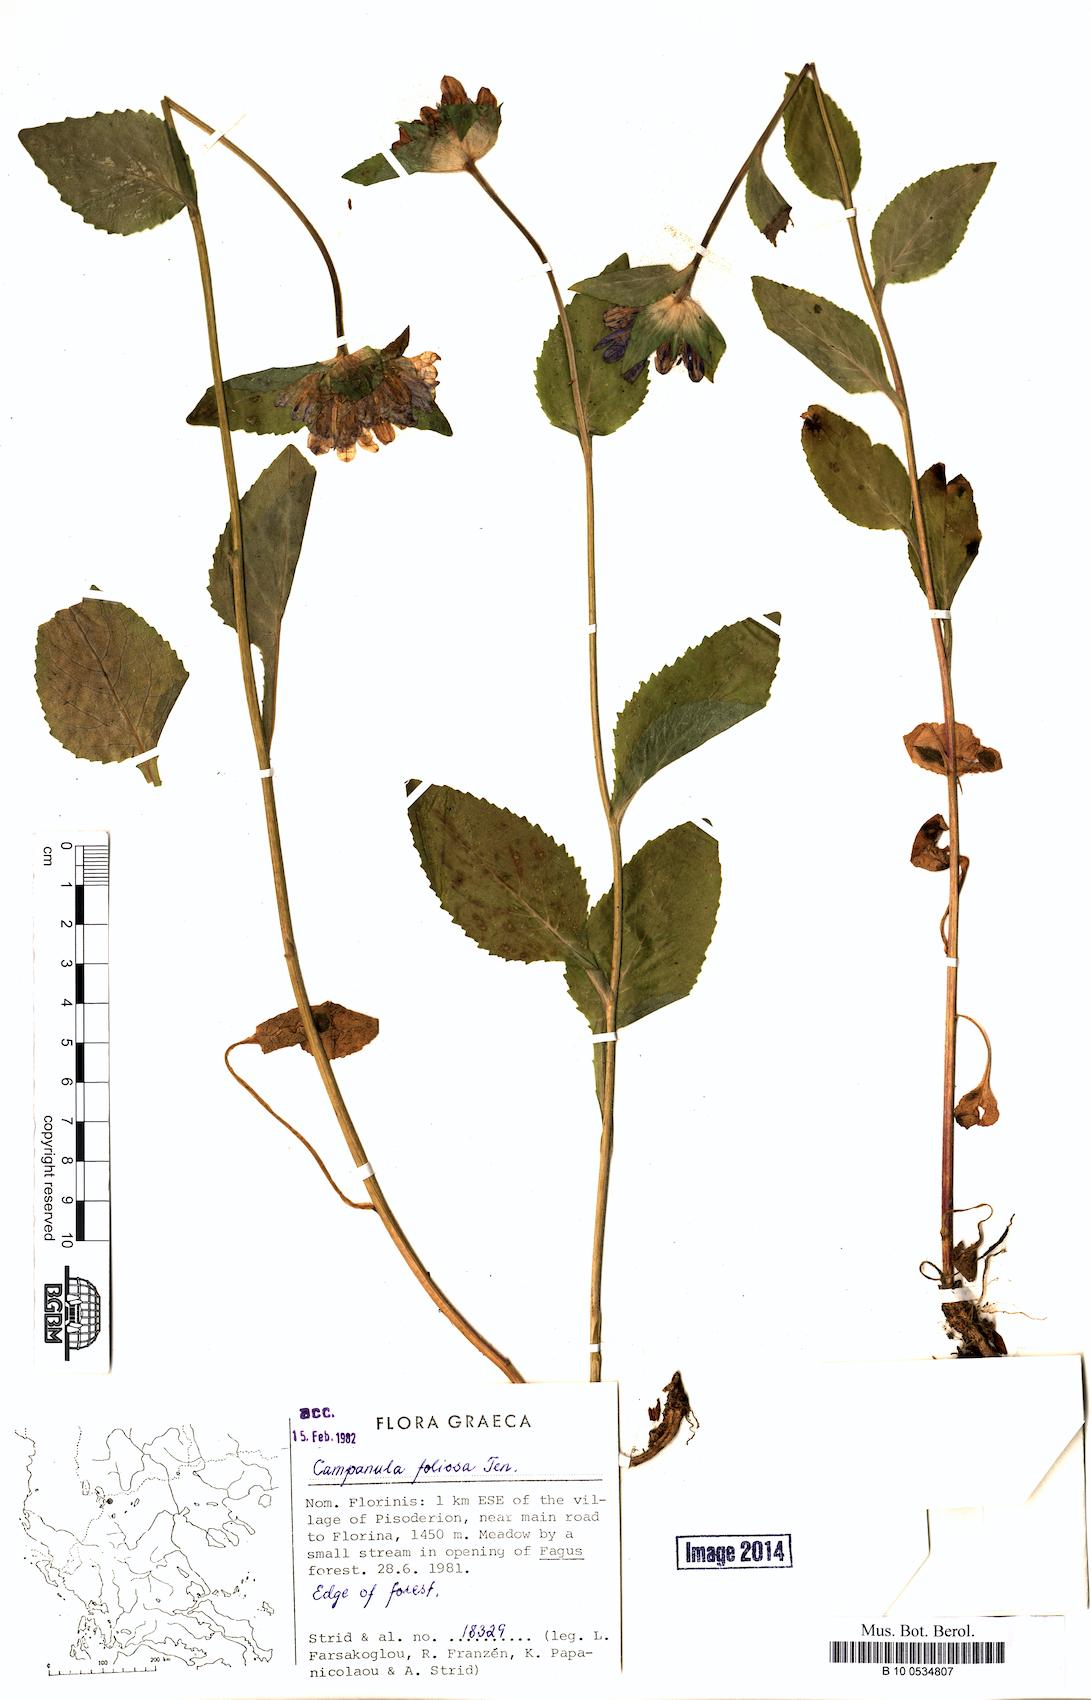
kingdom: Plantae
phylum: Tracheophyta
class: Magnoliopsida
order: Asterales
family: Campanulaceae
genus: Campanula
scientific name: Campanula foliosa
